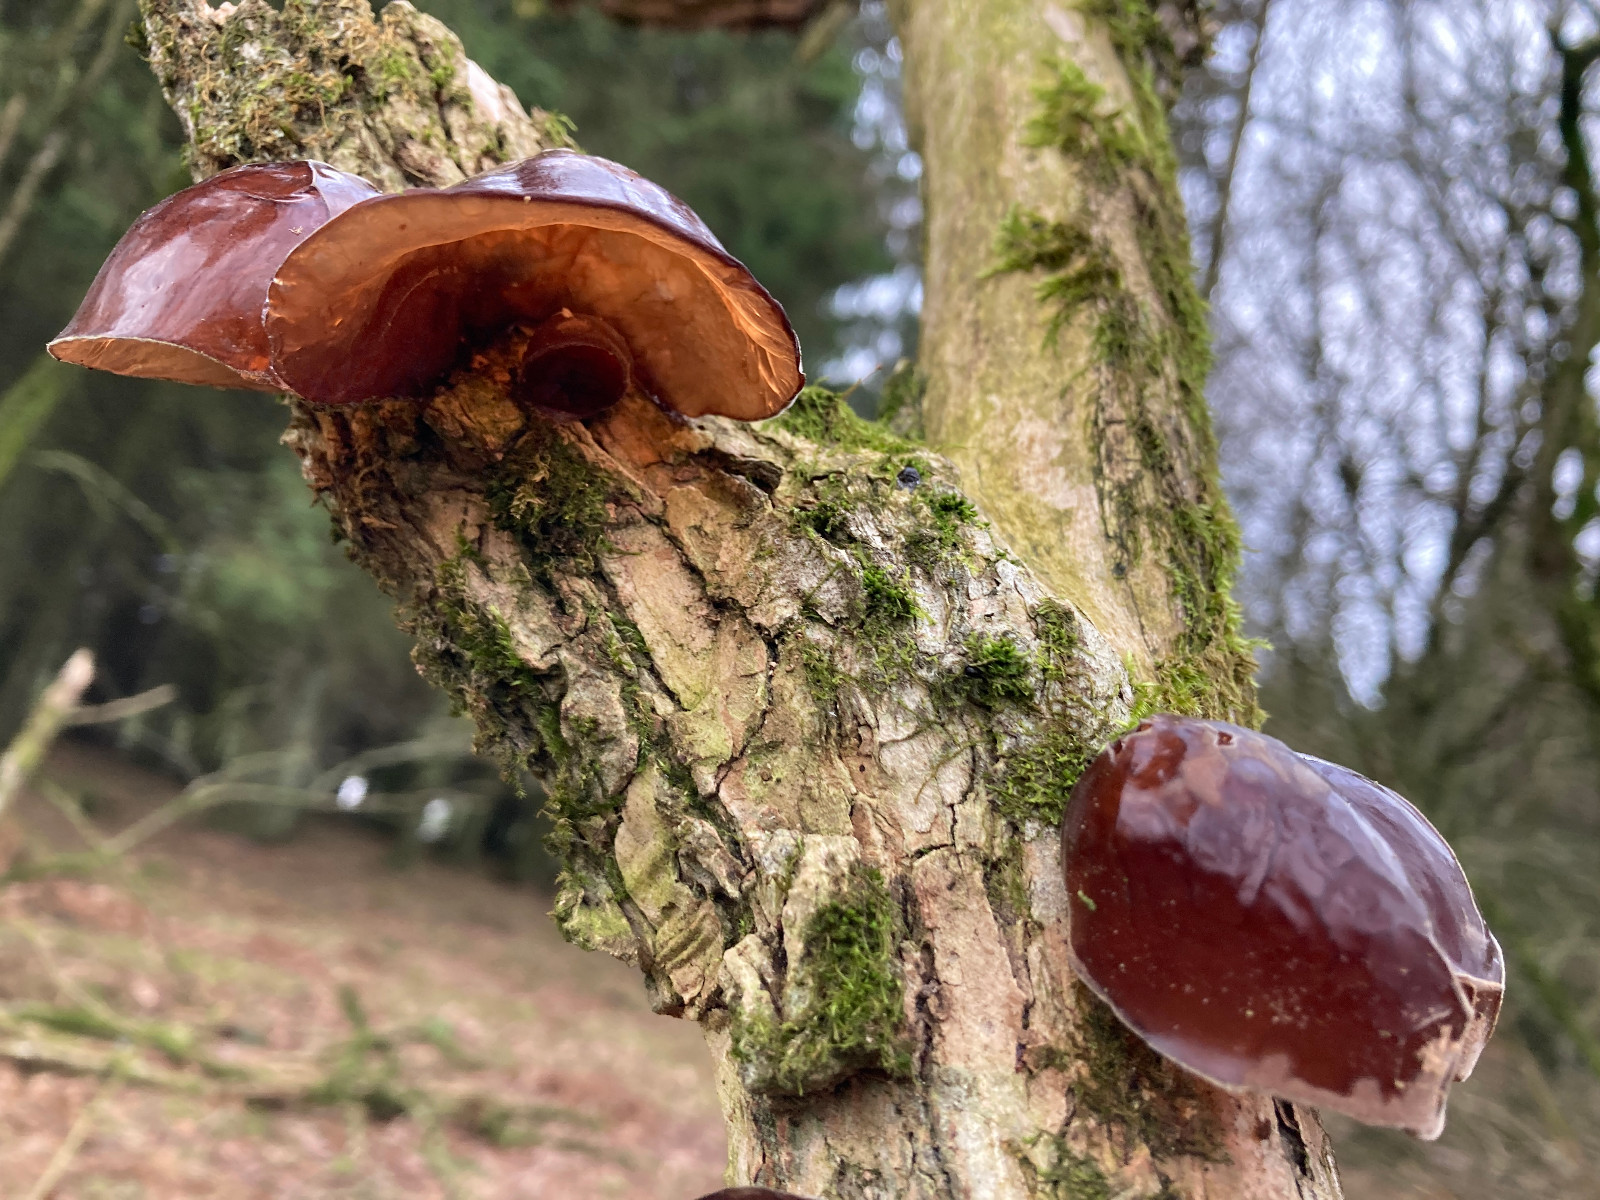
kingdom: Fungi
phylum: Basidiomycota
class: Agaricomycetes
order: Auriculariales
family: Auriculariaceae
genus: Auricularia
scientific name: Auricularia auricula-judae
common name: almindelig judasøre
